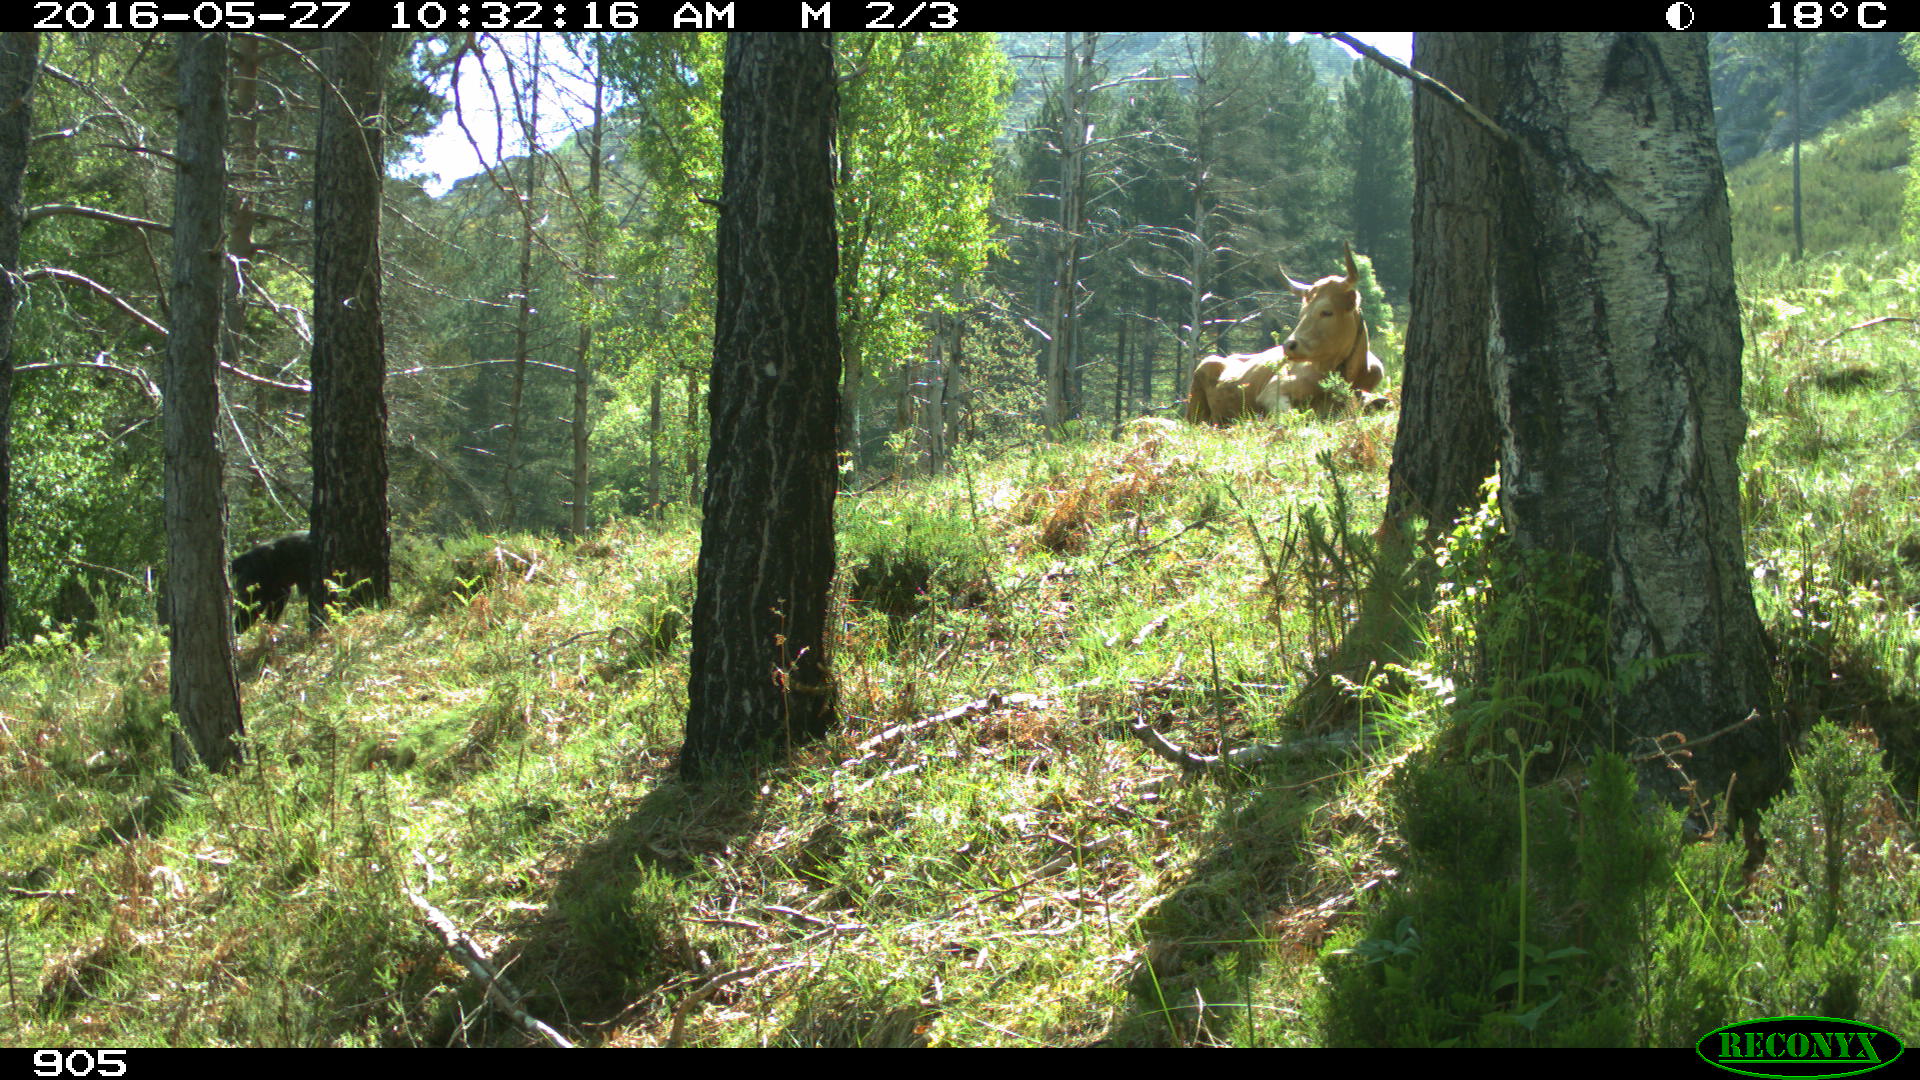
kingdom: Animalia
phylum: Chordata
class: Mammalia
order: Artiodactyla
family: Bovidae
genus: Bos
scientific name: Bos taurus
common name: Domesticated cattle
